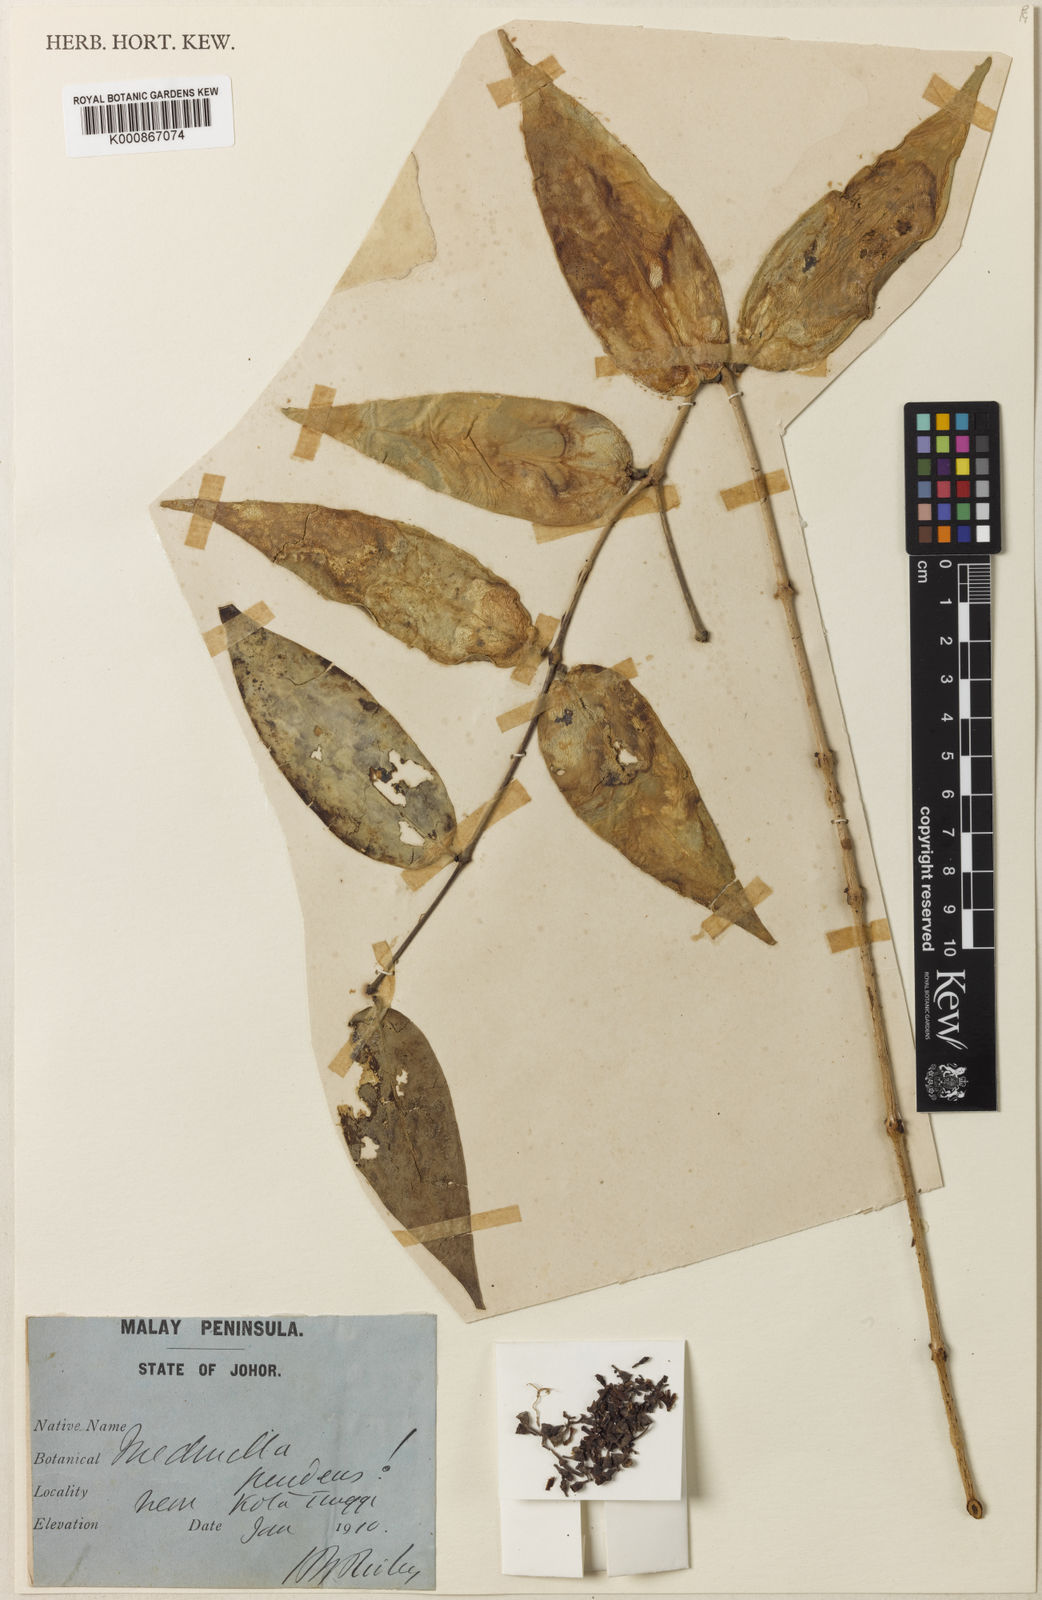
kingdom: Plantae
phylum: Tracheophyta
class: Magnoliopsida
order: Myrtales
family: Melastomataceae
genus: Medinilla
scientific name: Medinilla pendens
